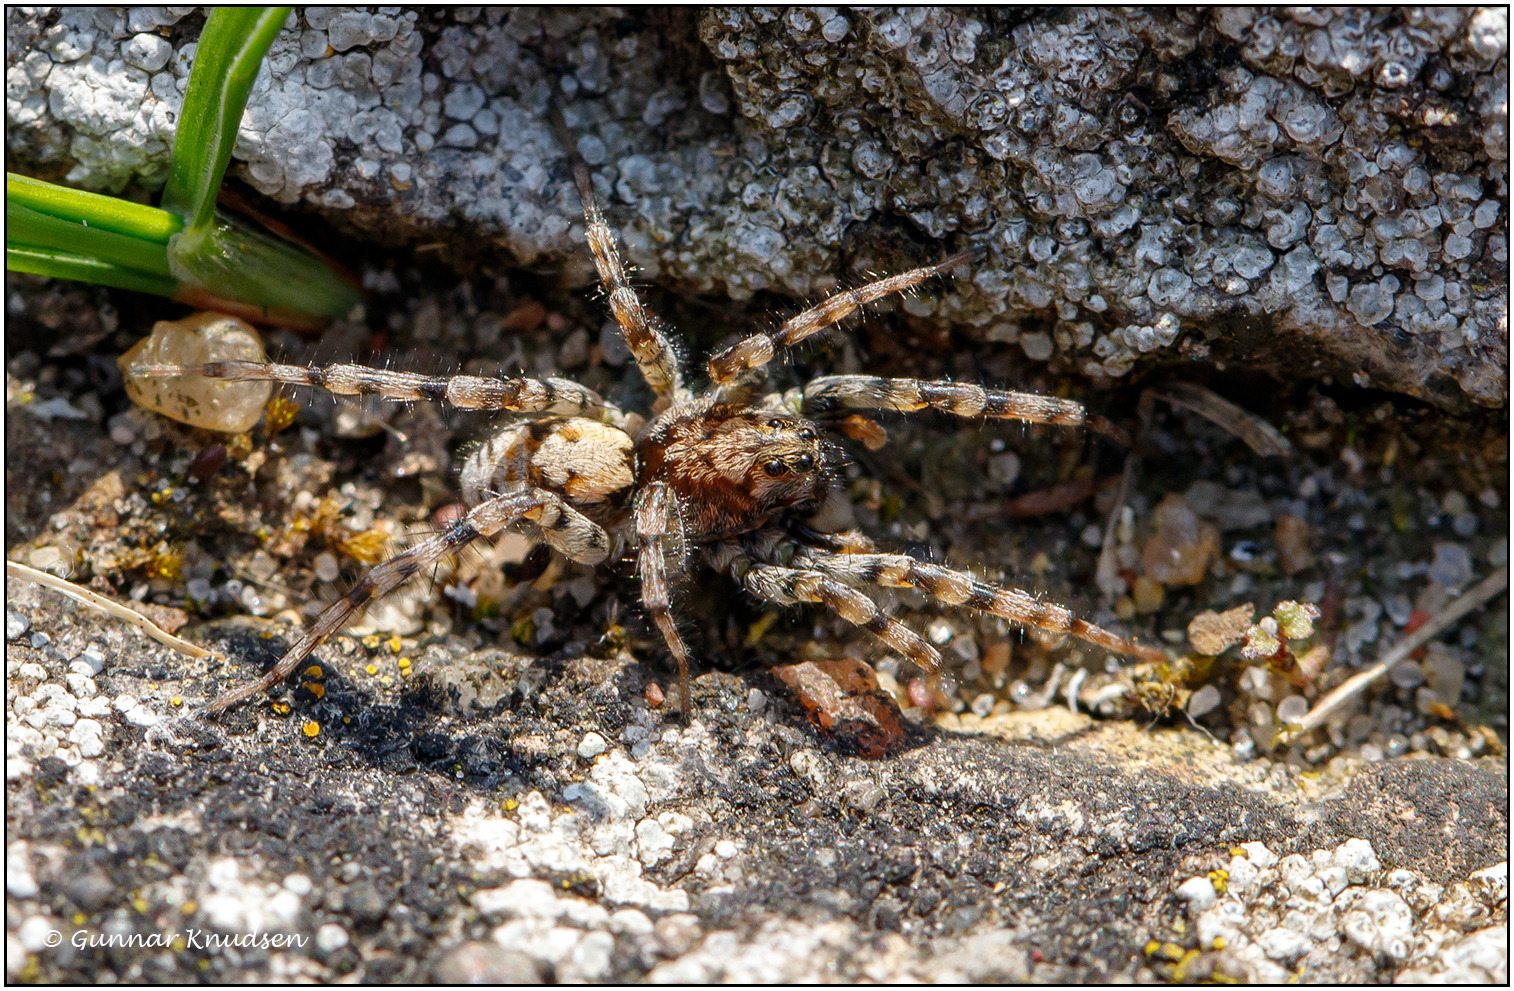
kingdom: Animalia
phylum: Arthropoda
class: Arachnida
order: Araneae
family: Lycosidae
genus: Arctosa
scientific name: Arctosa perita
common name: Klitgraveedderkop
